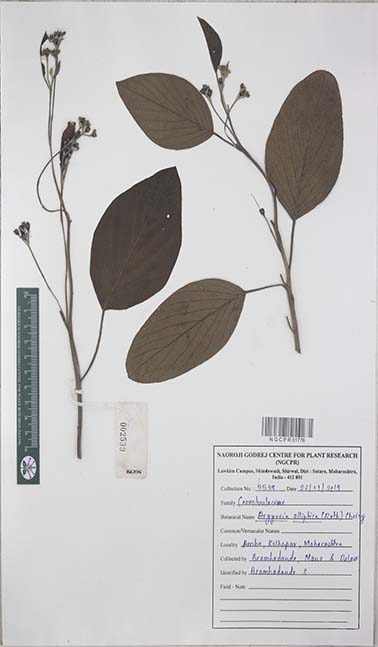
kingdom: Plantae
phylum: Tracheophyta
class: Magnoliopsida
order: Solanales
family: Convolvulaceae
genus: Argyreia
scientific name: Argyreia elliptica
